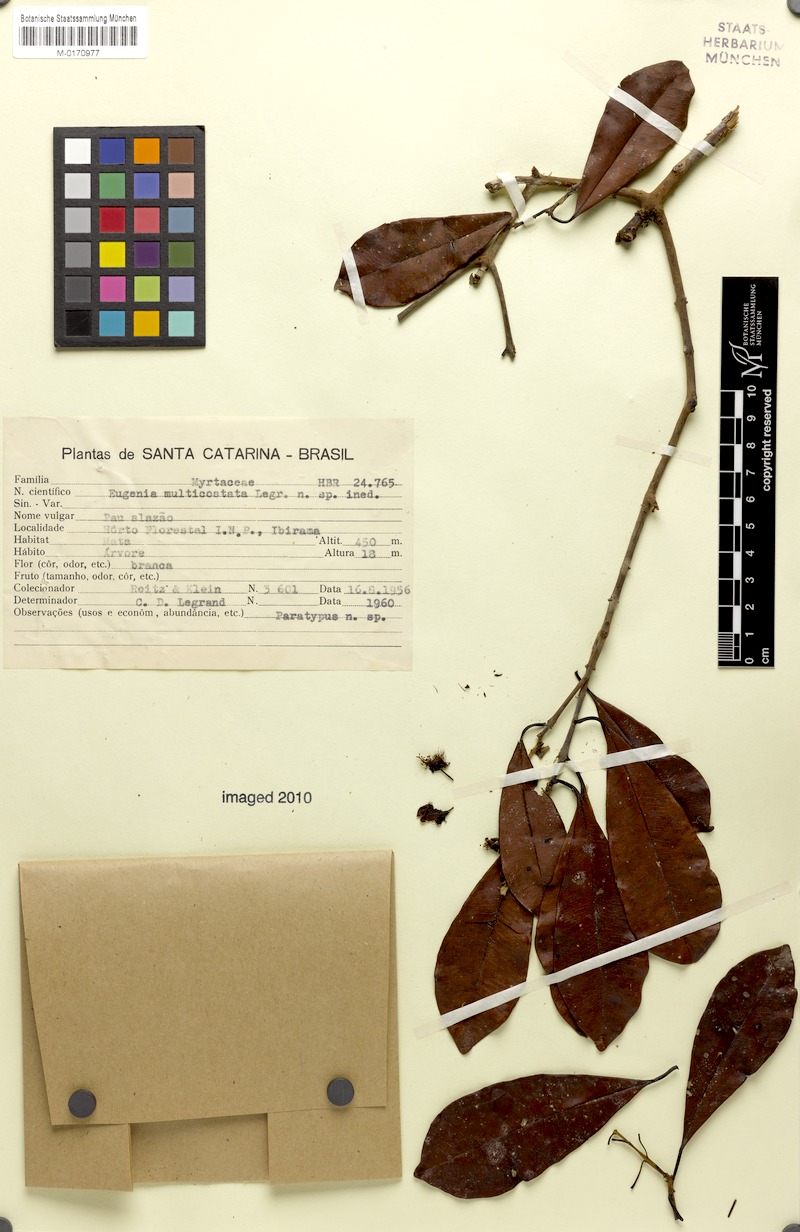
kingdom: Plantae
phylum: Tracheophyta
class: Magnoliopsida
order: Myrtales
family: Myrtaceae
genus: Eugenia
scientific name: Eugenia multicostata
